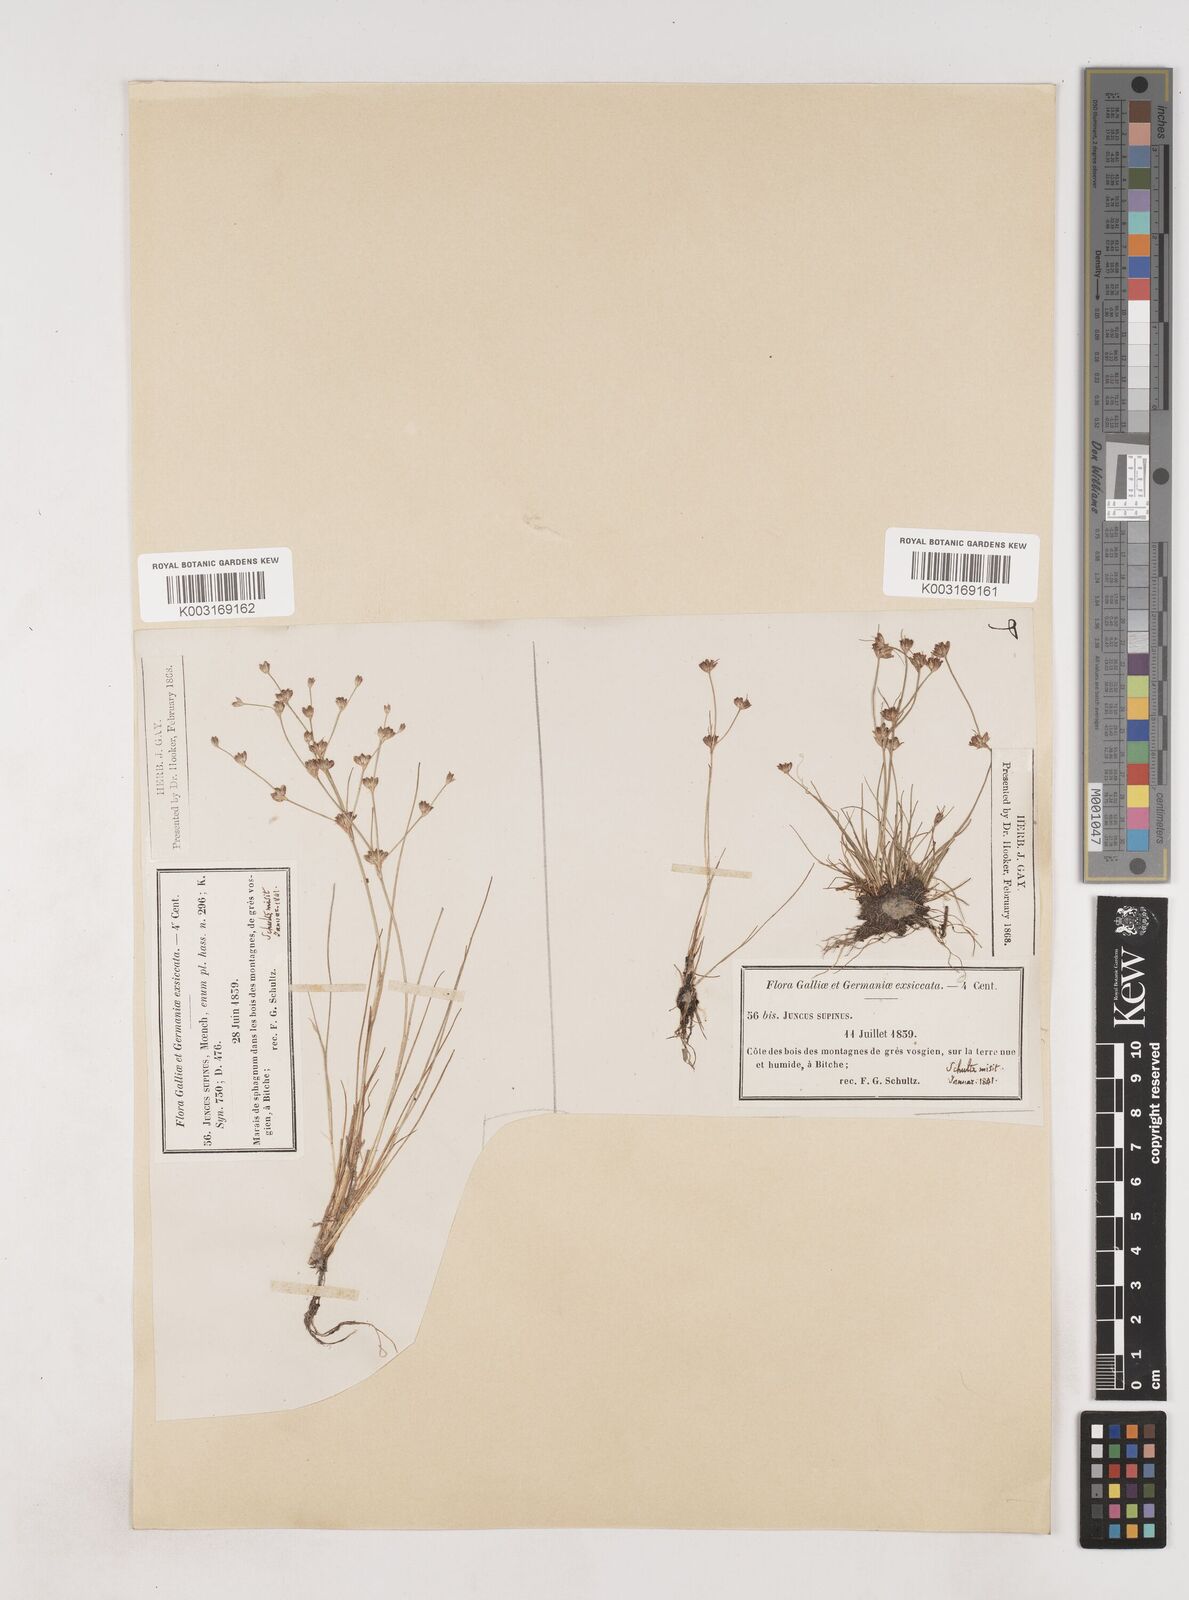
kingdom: Plantae
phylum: Tracheophyta
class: Liliopsida
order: Poales
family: Juncaceae
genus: Juncus
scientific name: Juncus bulbosus
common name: Bulbous rush
